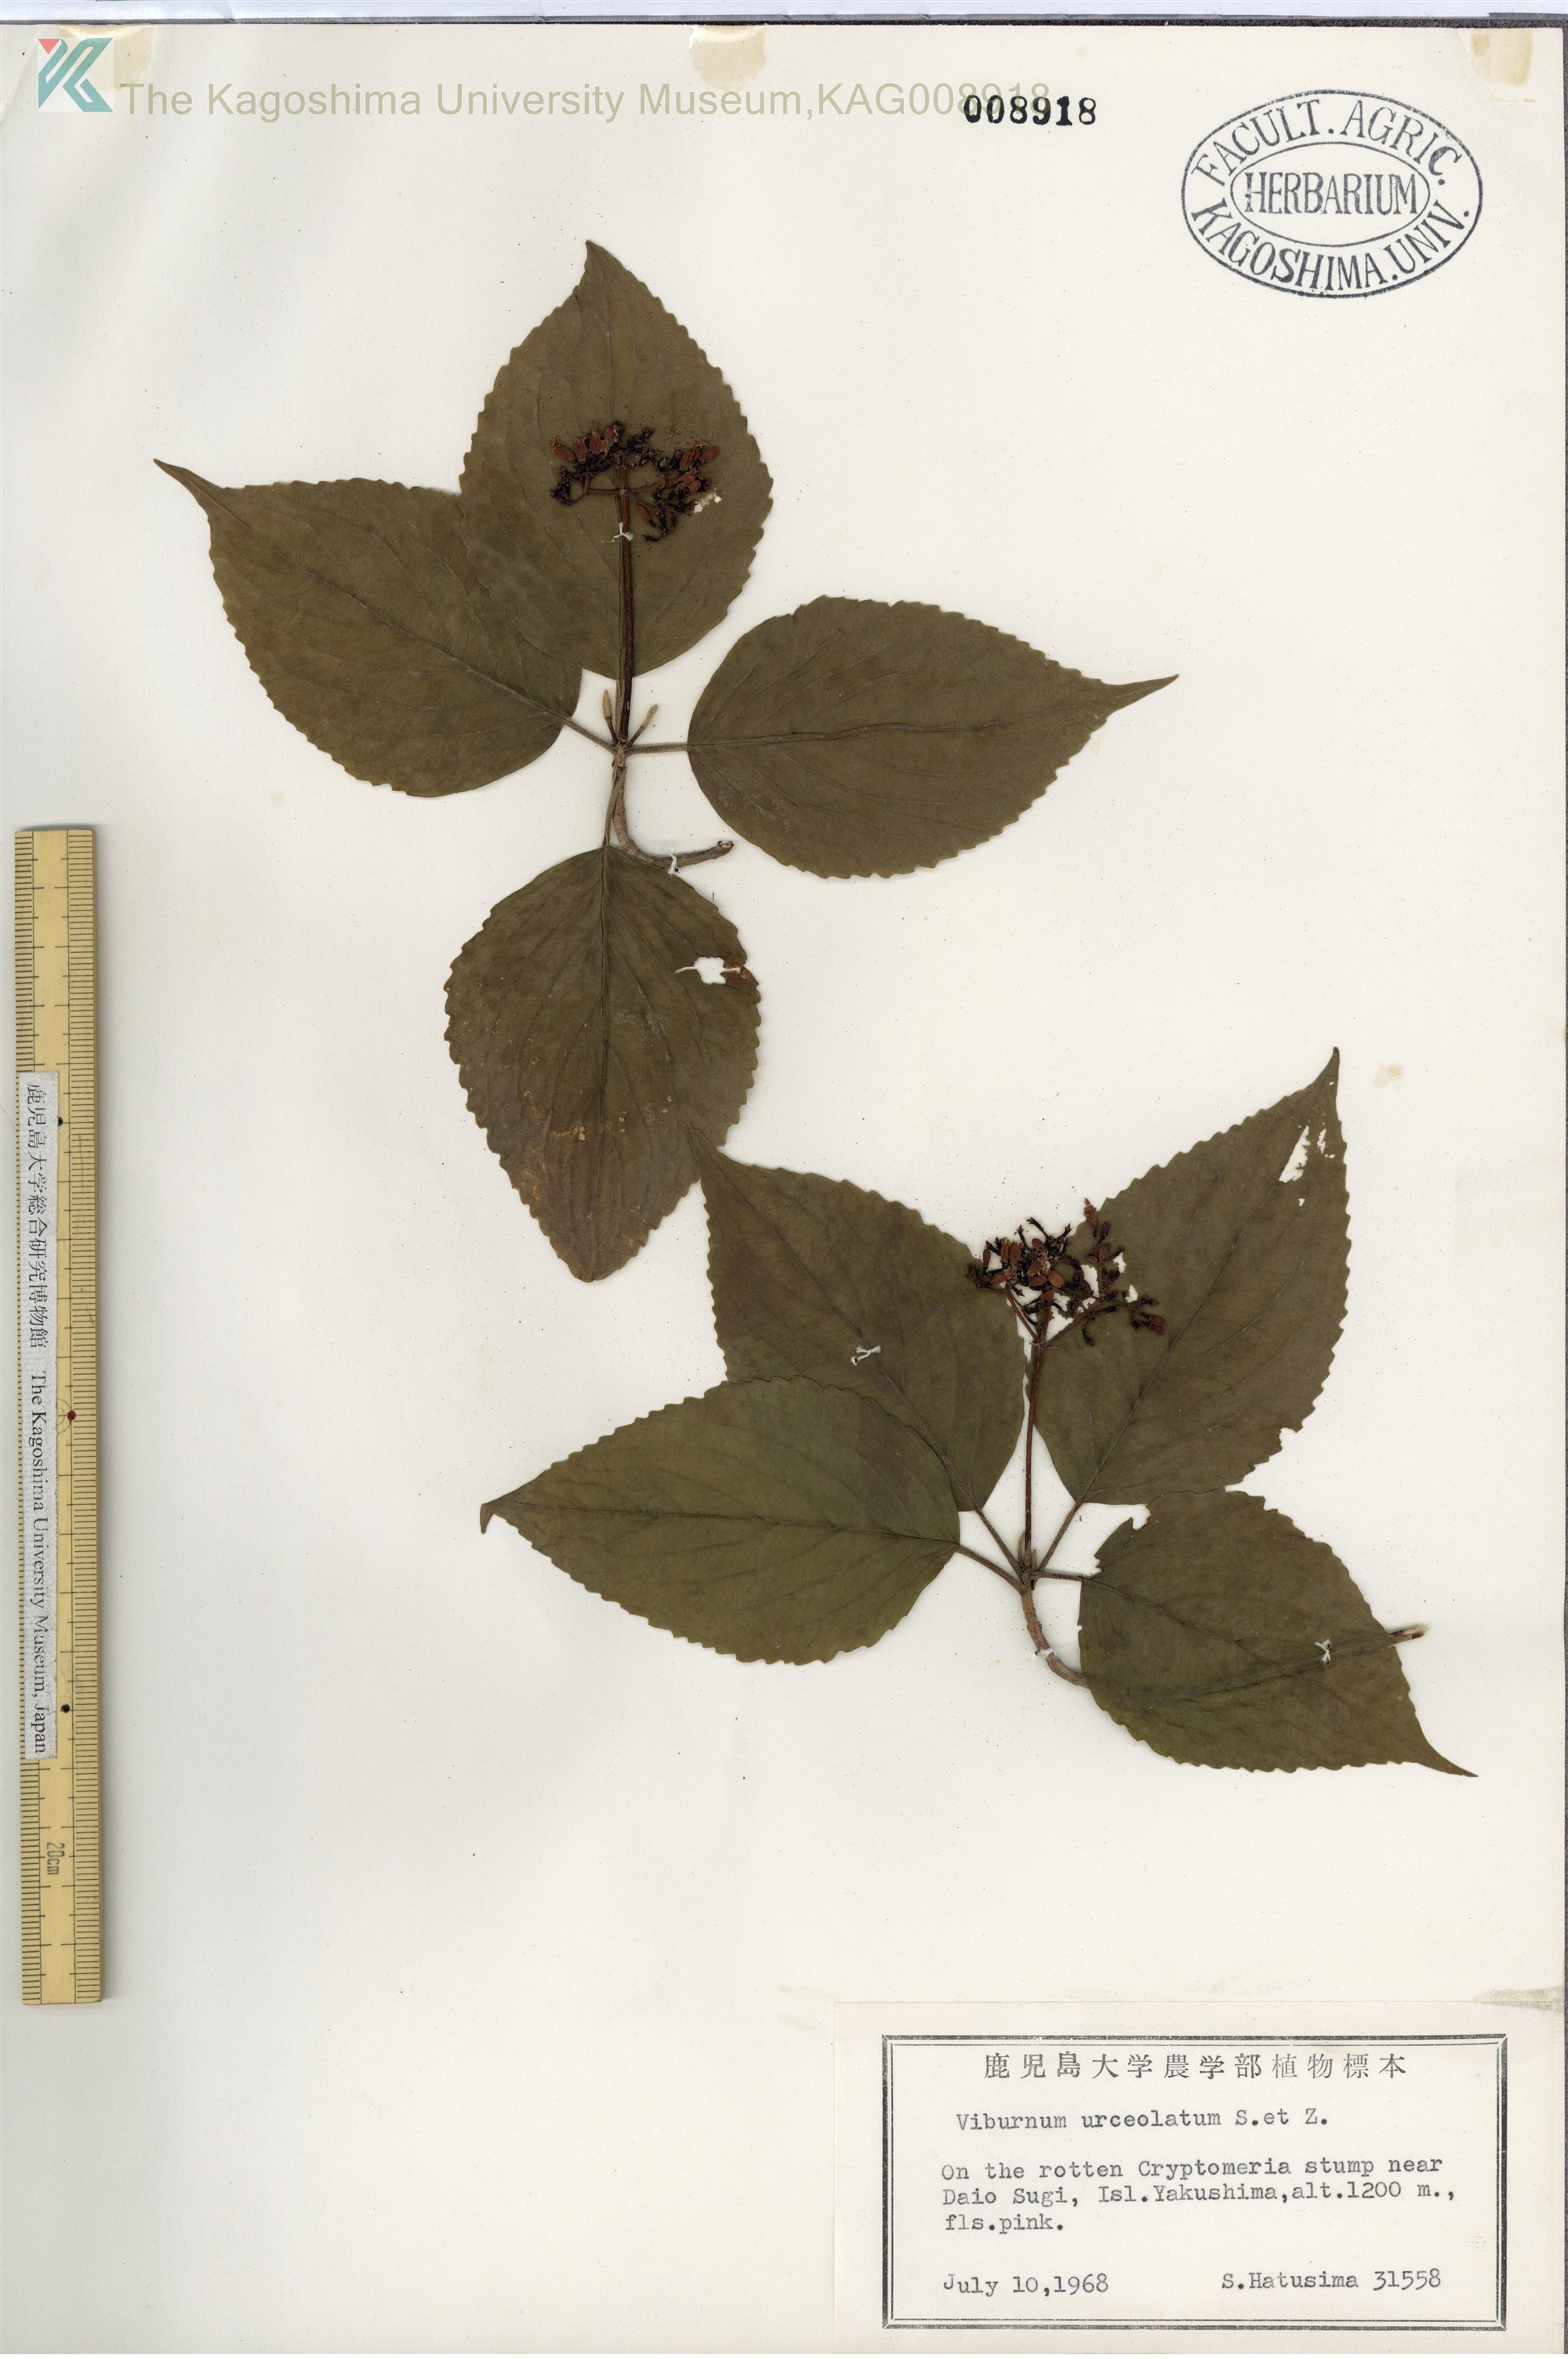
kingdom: Plantae
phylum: Tracheophyta
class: Magnoliopsida
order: Dipsacales
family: Viburnaceae
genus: Viburnum
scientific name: Viburnum urceolatum
